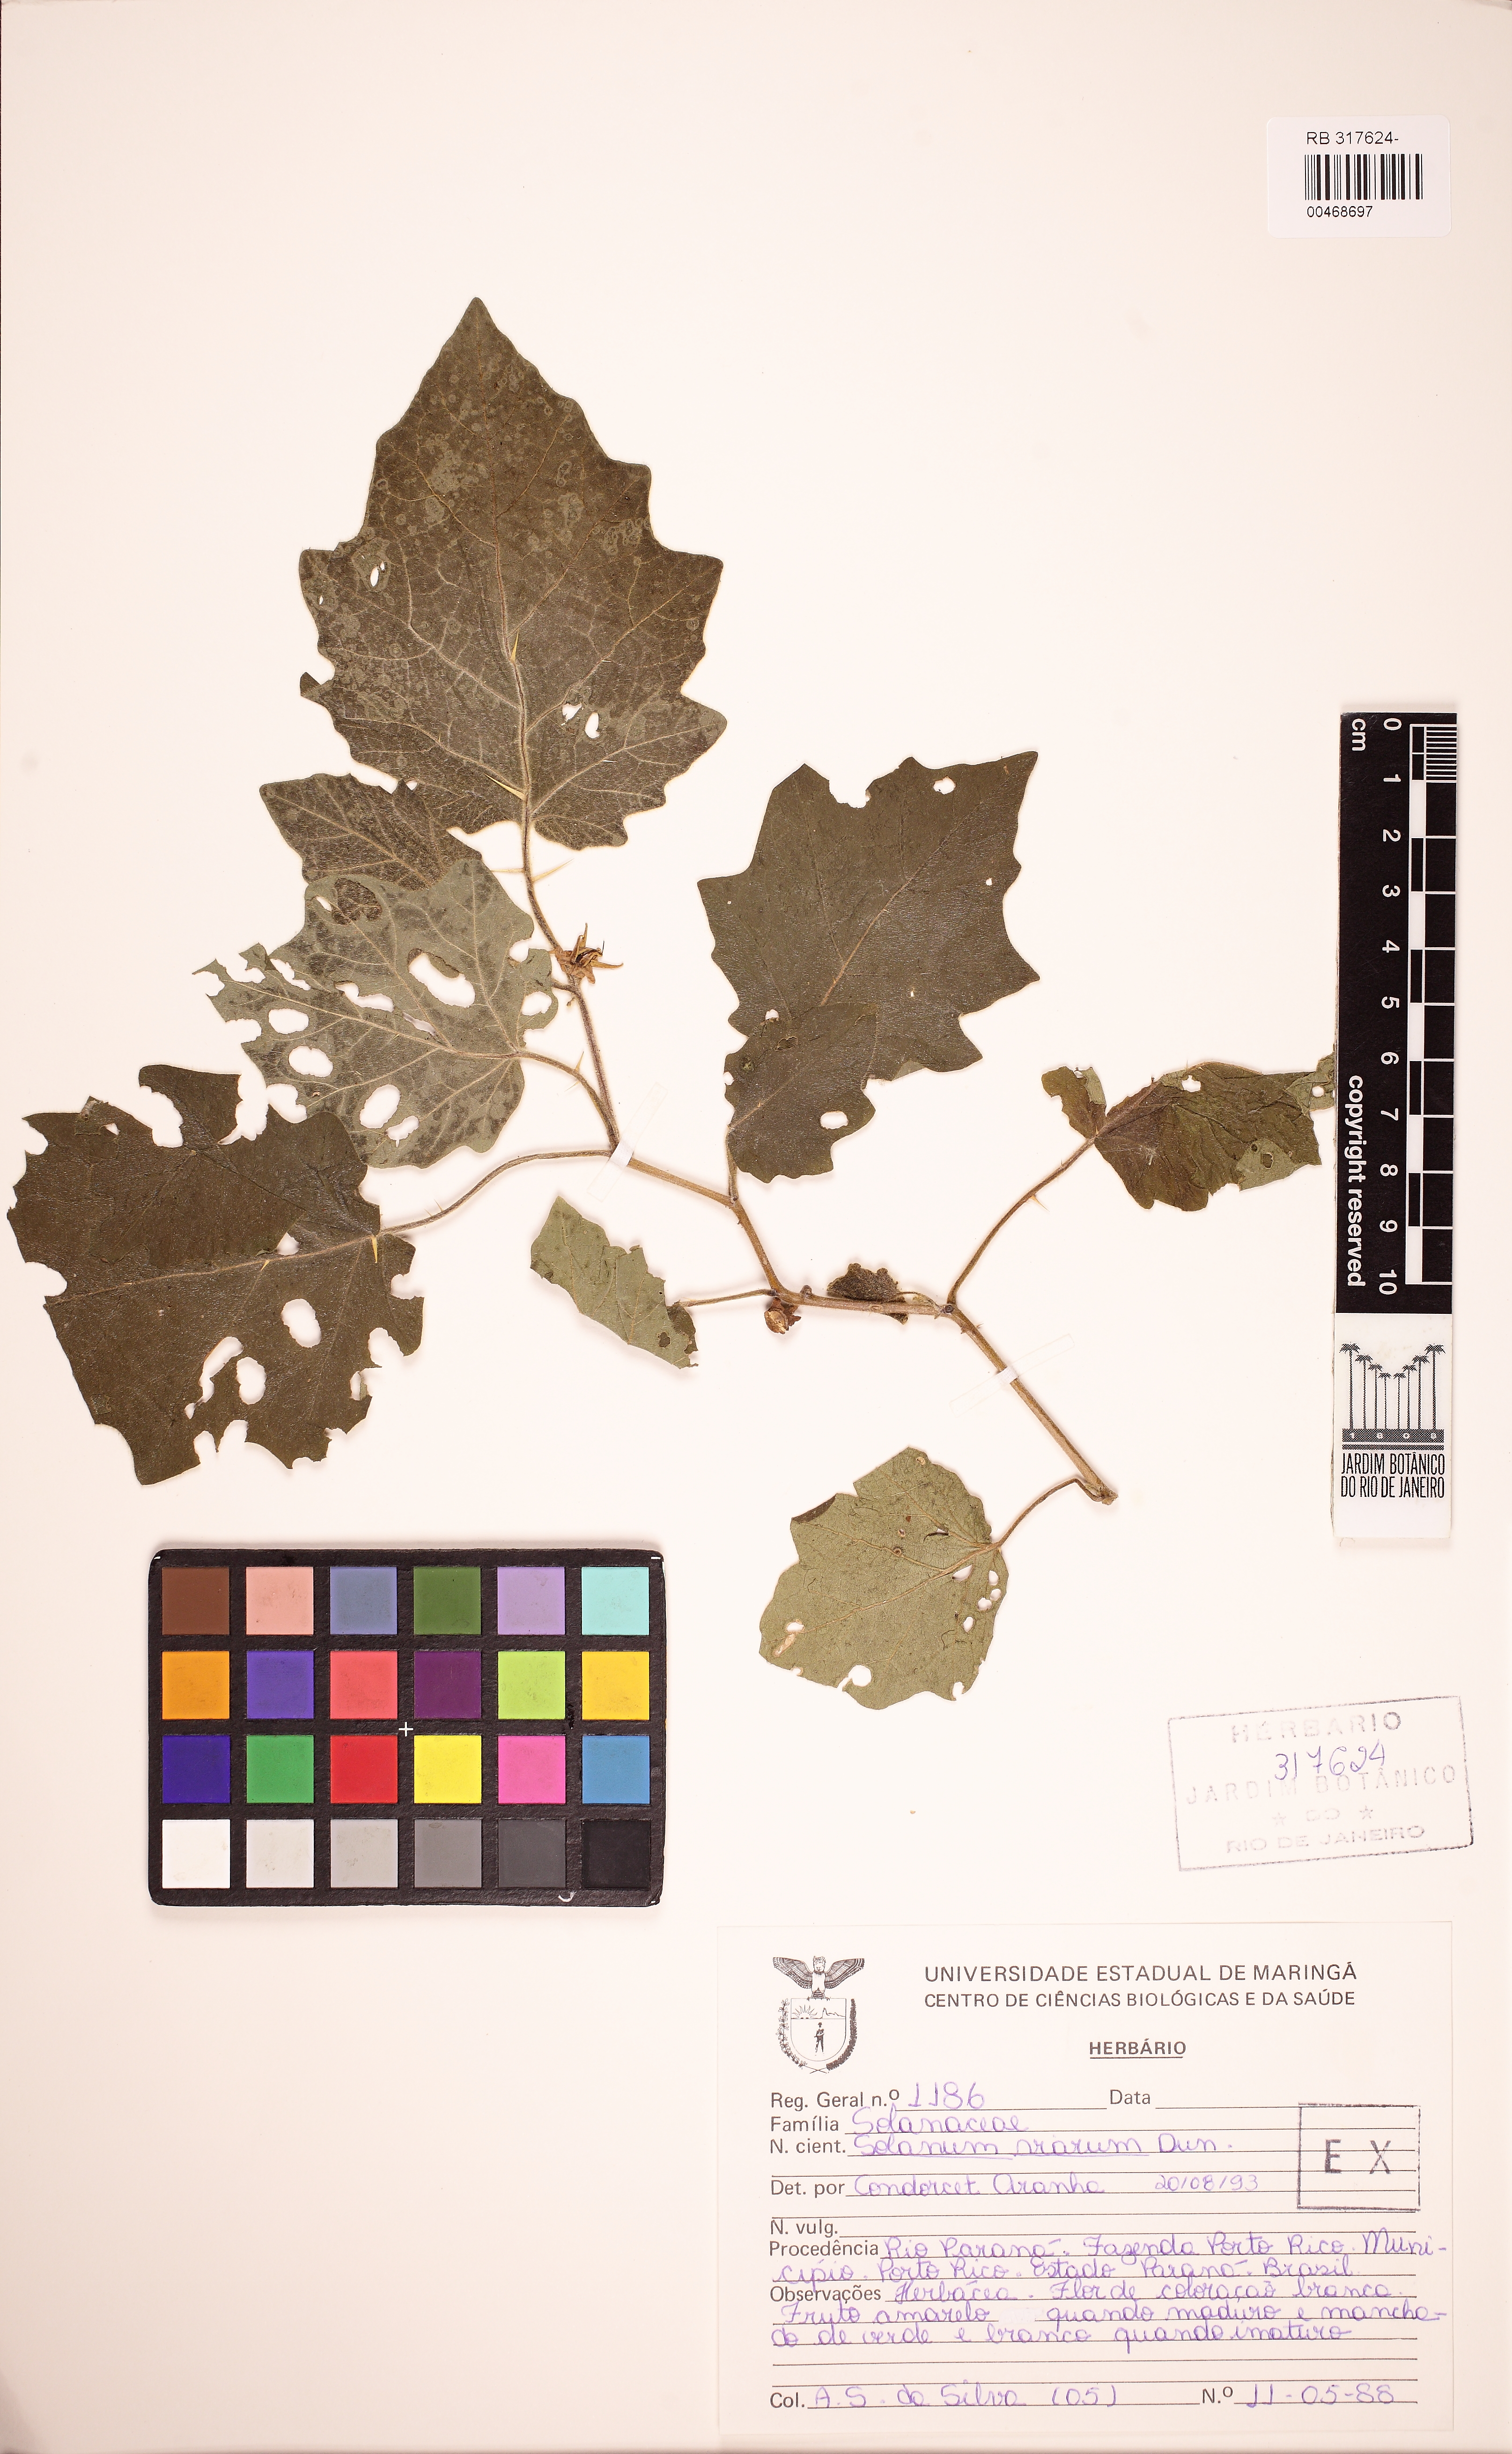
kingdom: Plantae
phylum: Tracheophyta
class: Magnoliopsida
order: Solanales
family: Solanaceae
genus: Solanum
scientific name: Solanum viarum
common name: Tropical soda apple
